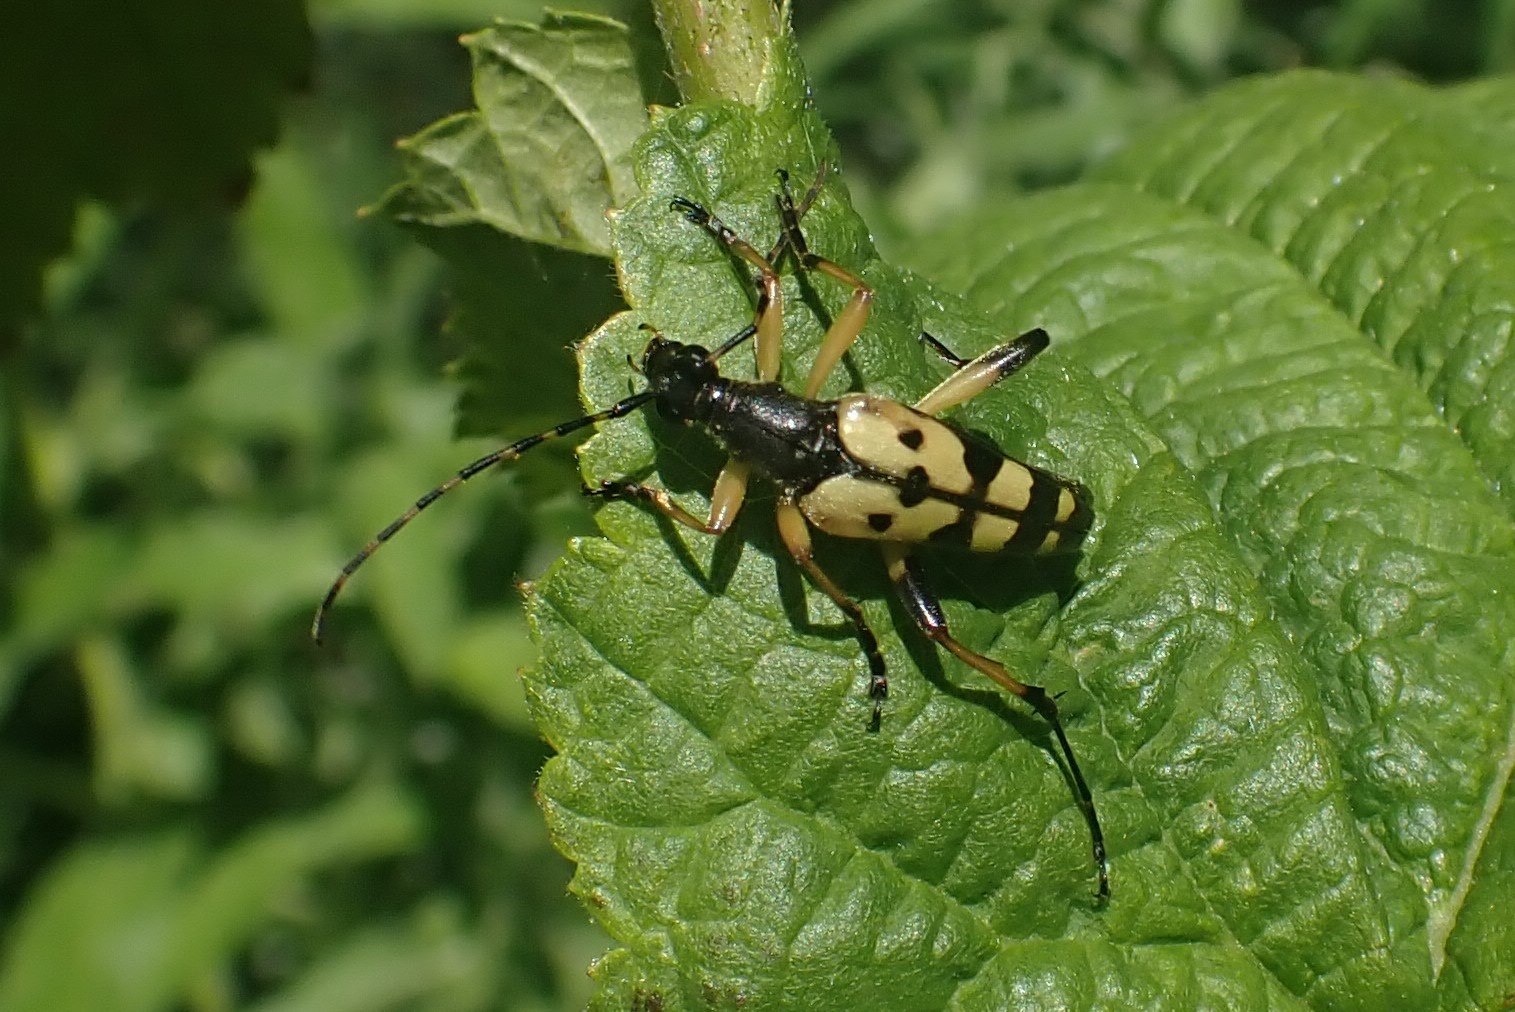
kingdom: Animalia
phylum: Arthropoda
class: Insecta
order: Coleoptera
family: Cerambycidae
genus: Rutpela
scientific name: Rutpela maculata
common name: Sydlig blomsterbuk
